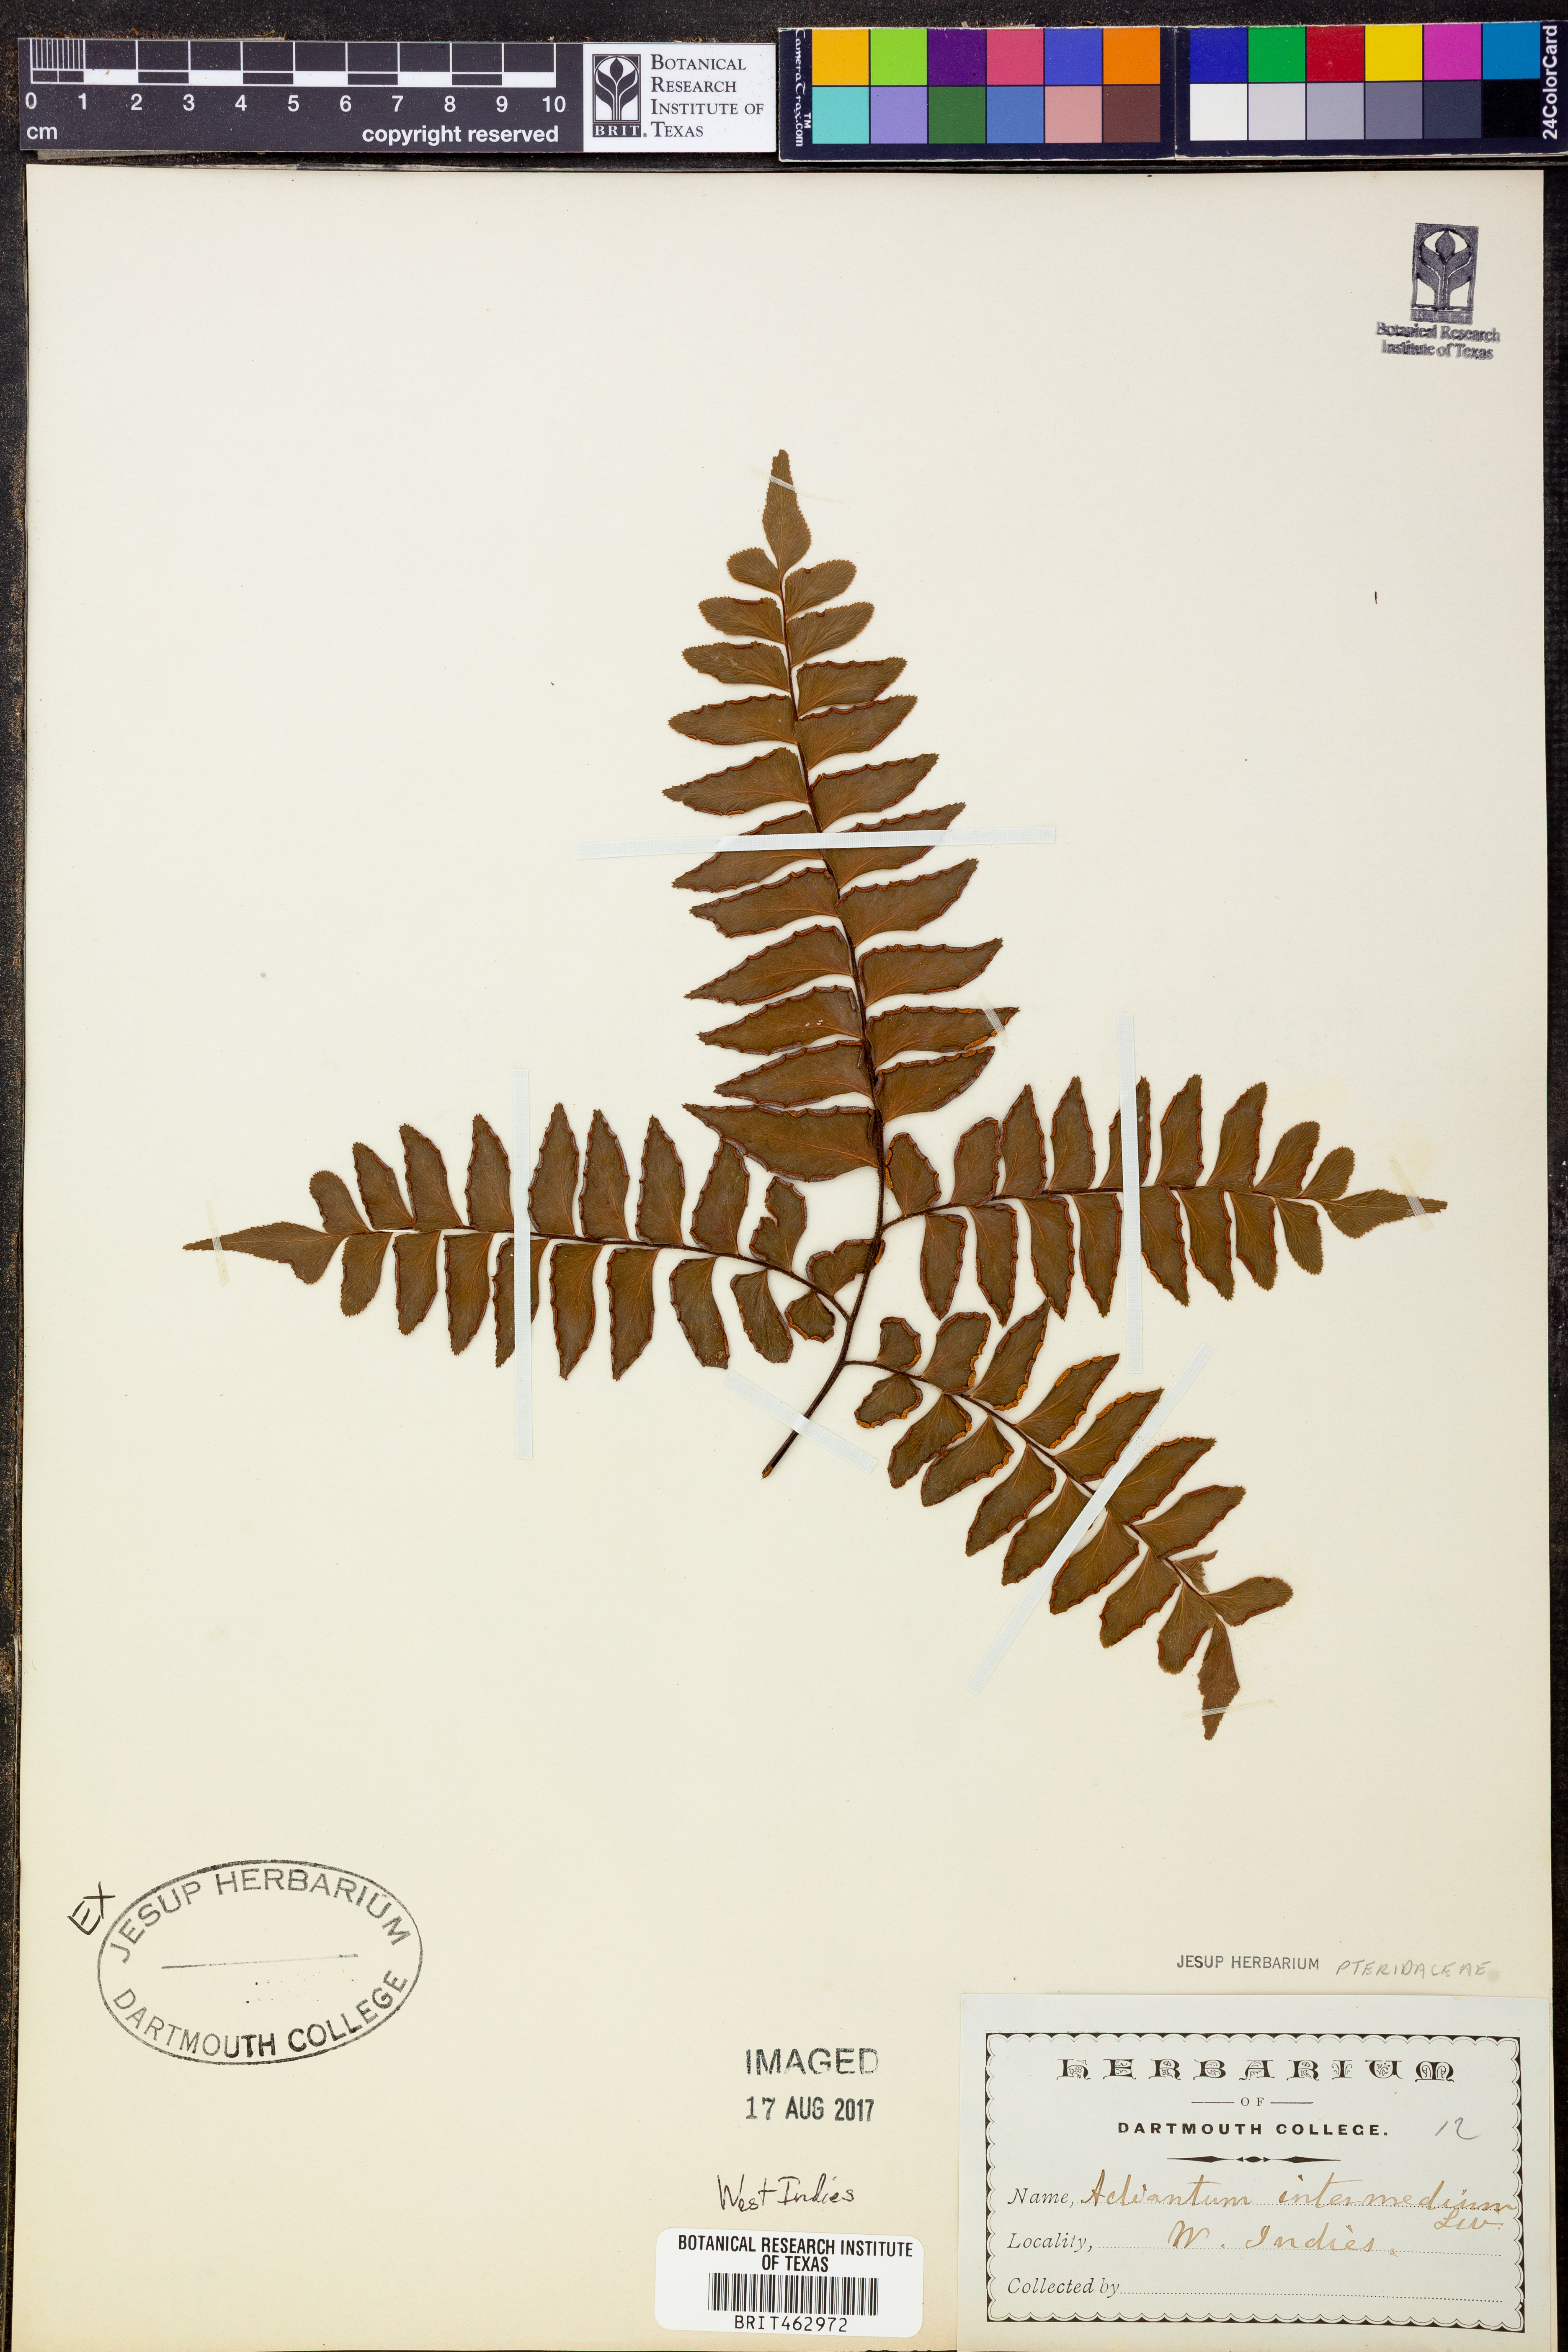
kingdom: Plantae
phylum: Tracheophyta
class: Polypodiopsida
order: Polypodiales
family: Pteridaceae
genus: Adiantum
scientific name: Adiantum intermedium
